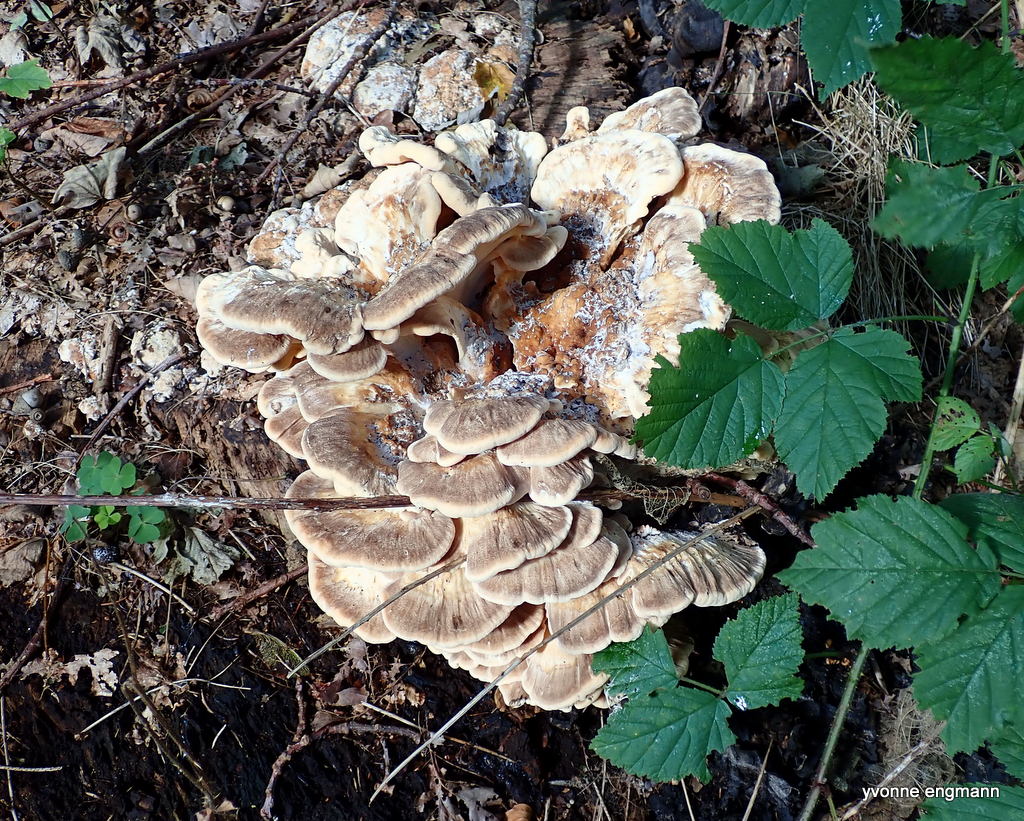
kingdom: Fungi
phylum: Basidiomycota
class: Agaricomycetes
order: Polyporales
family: Meripilaceae
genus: Meripilus
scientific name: Meripilus giganteus
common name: kæmpeporesvamp
